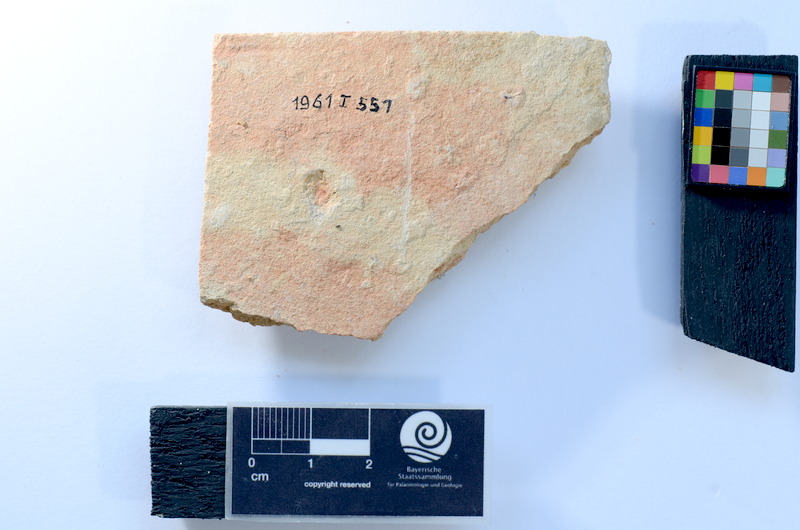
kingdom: Animalia
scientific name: Animalia
